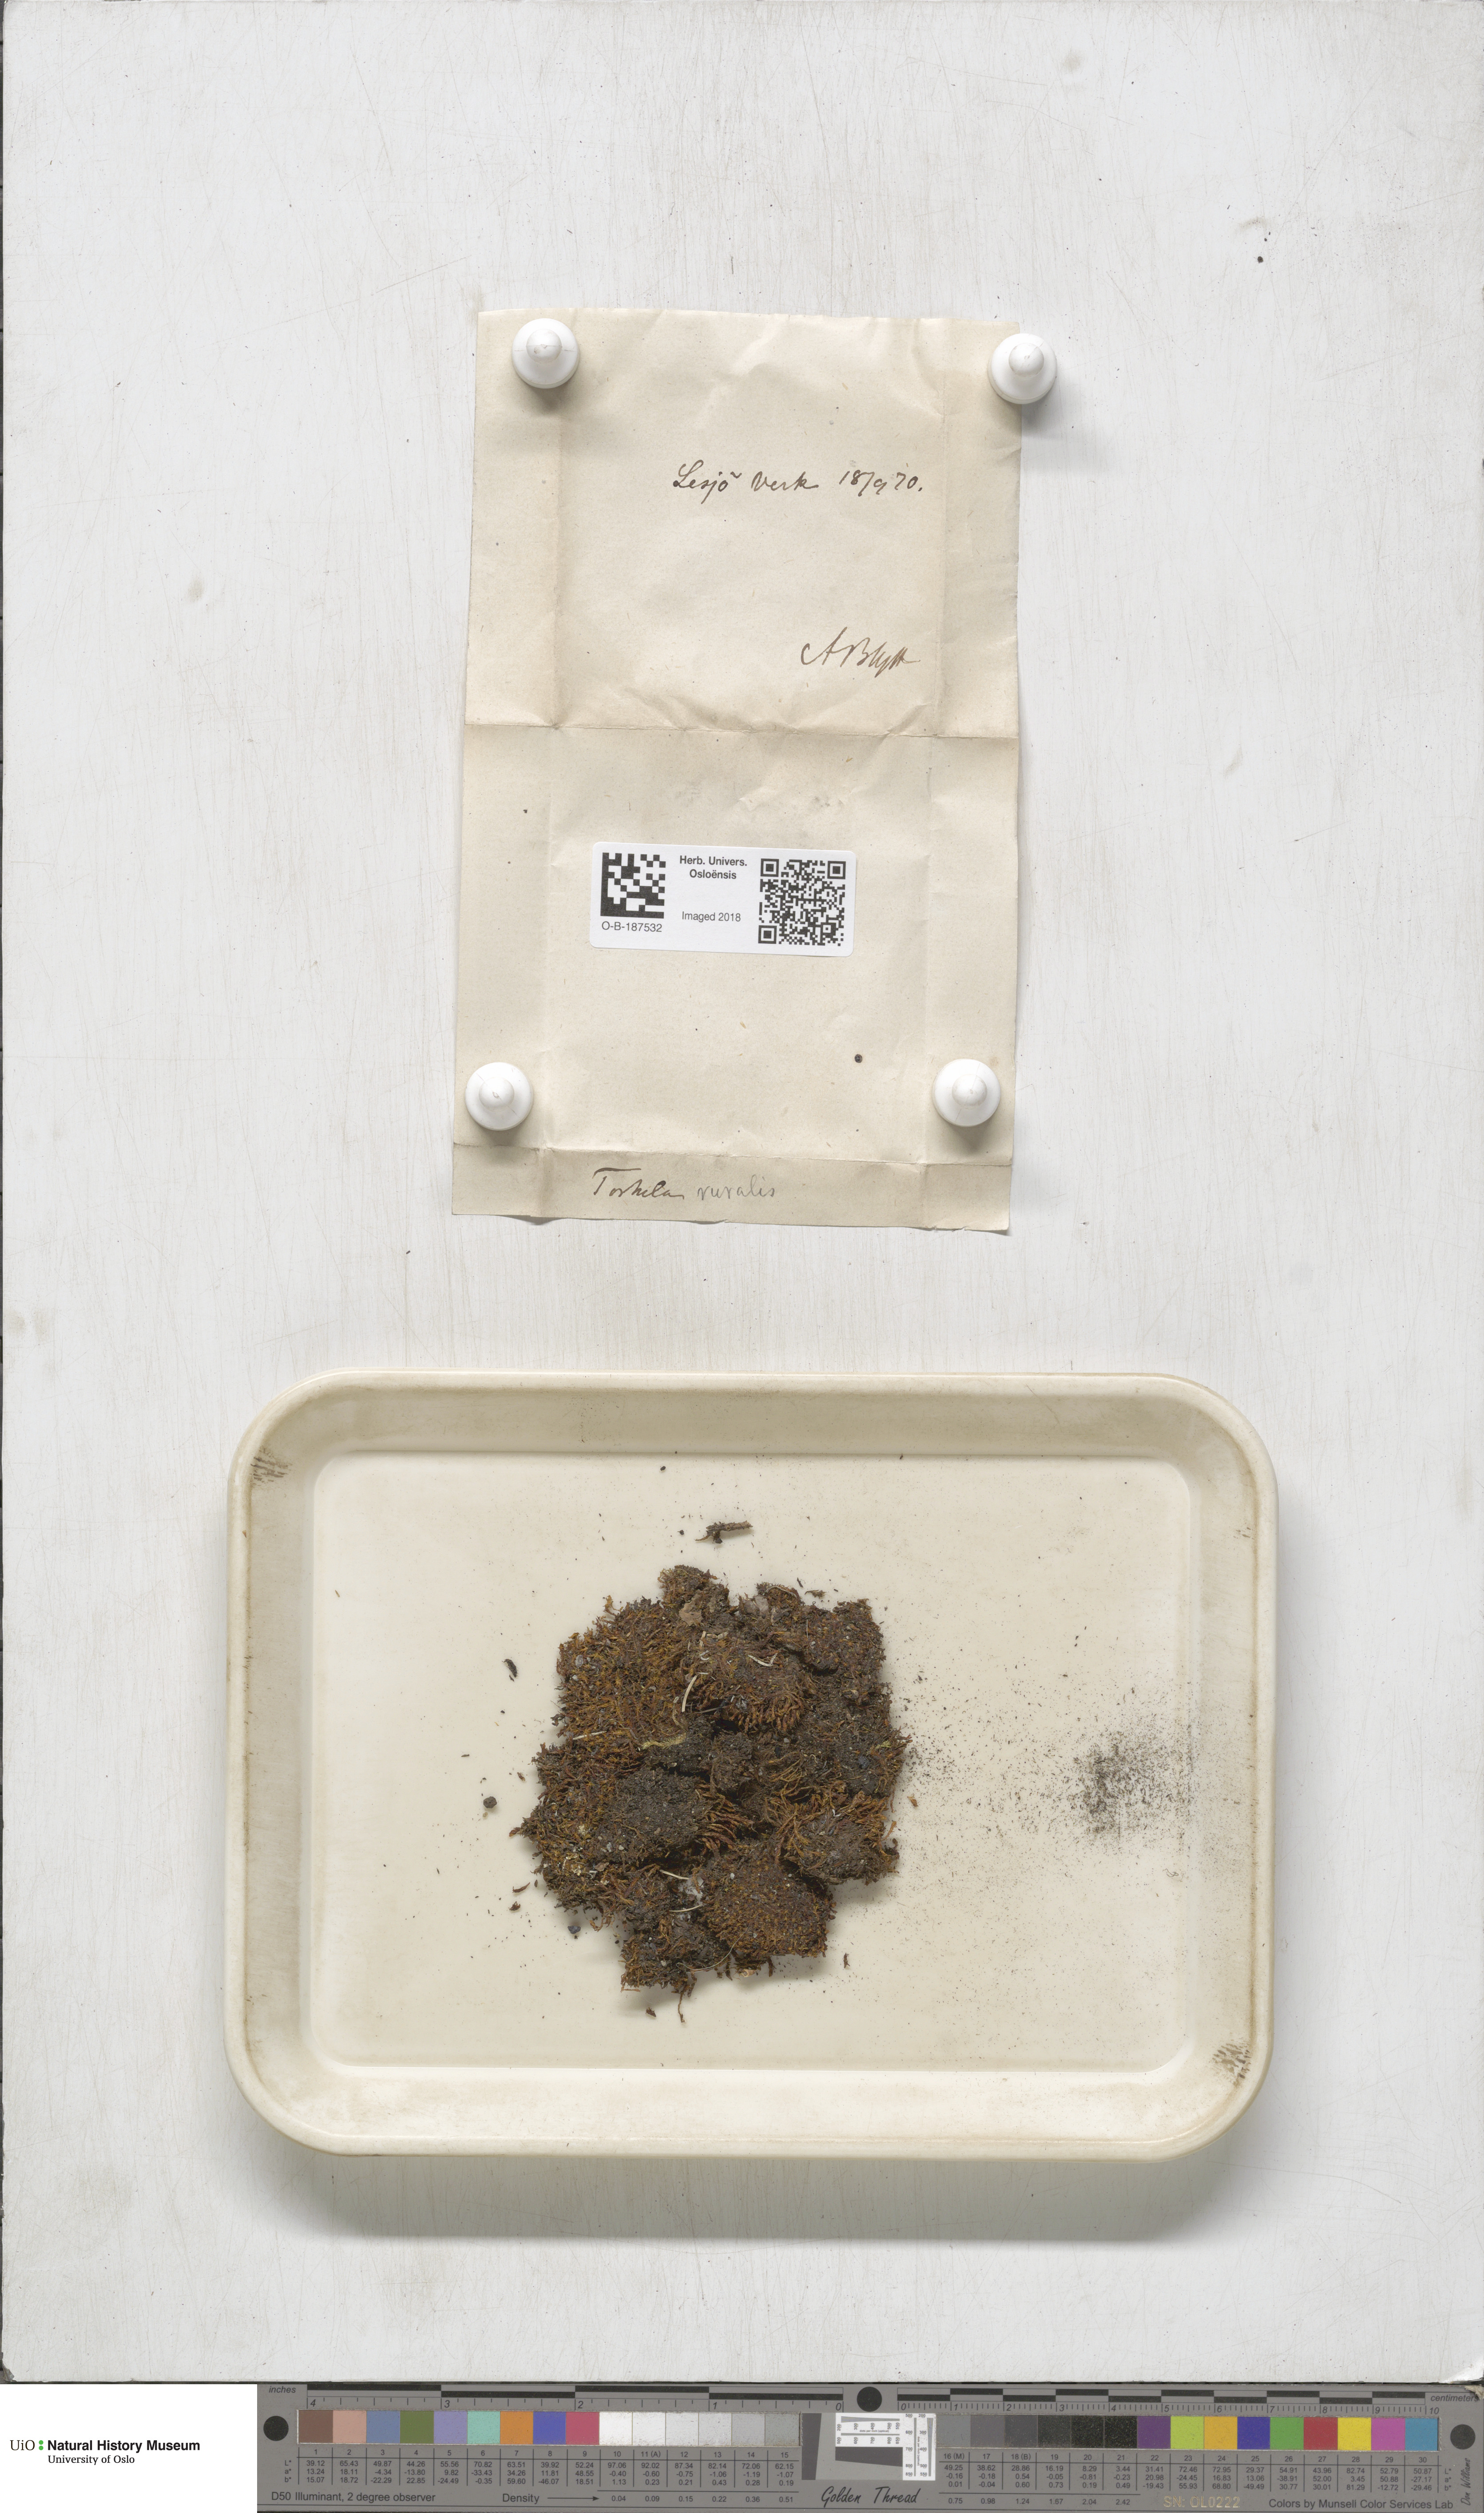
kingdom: Plantae
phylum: Bryophyta
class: Bryopsida
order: Pottiales
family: Pottiaceae
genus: Syntrichia
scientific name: Syntrichia ruralis
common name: Sidewalk screw moss
